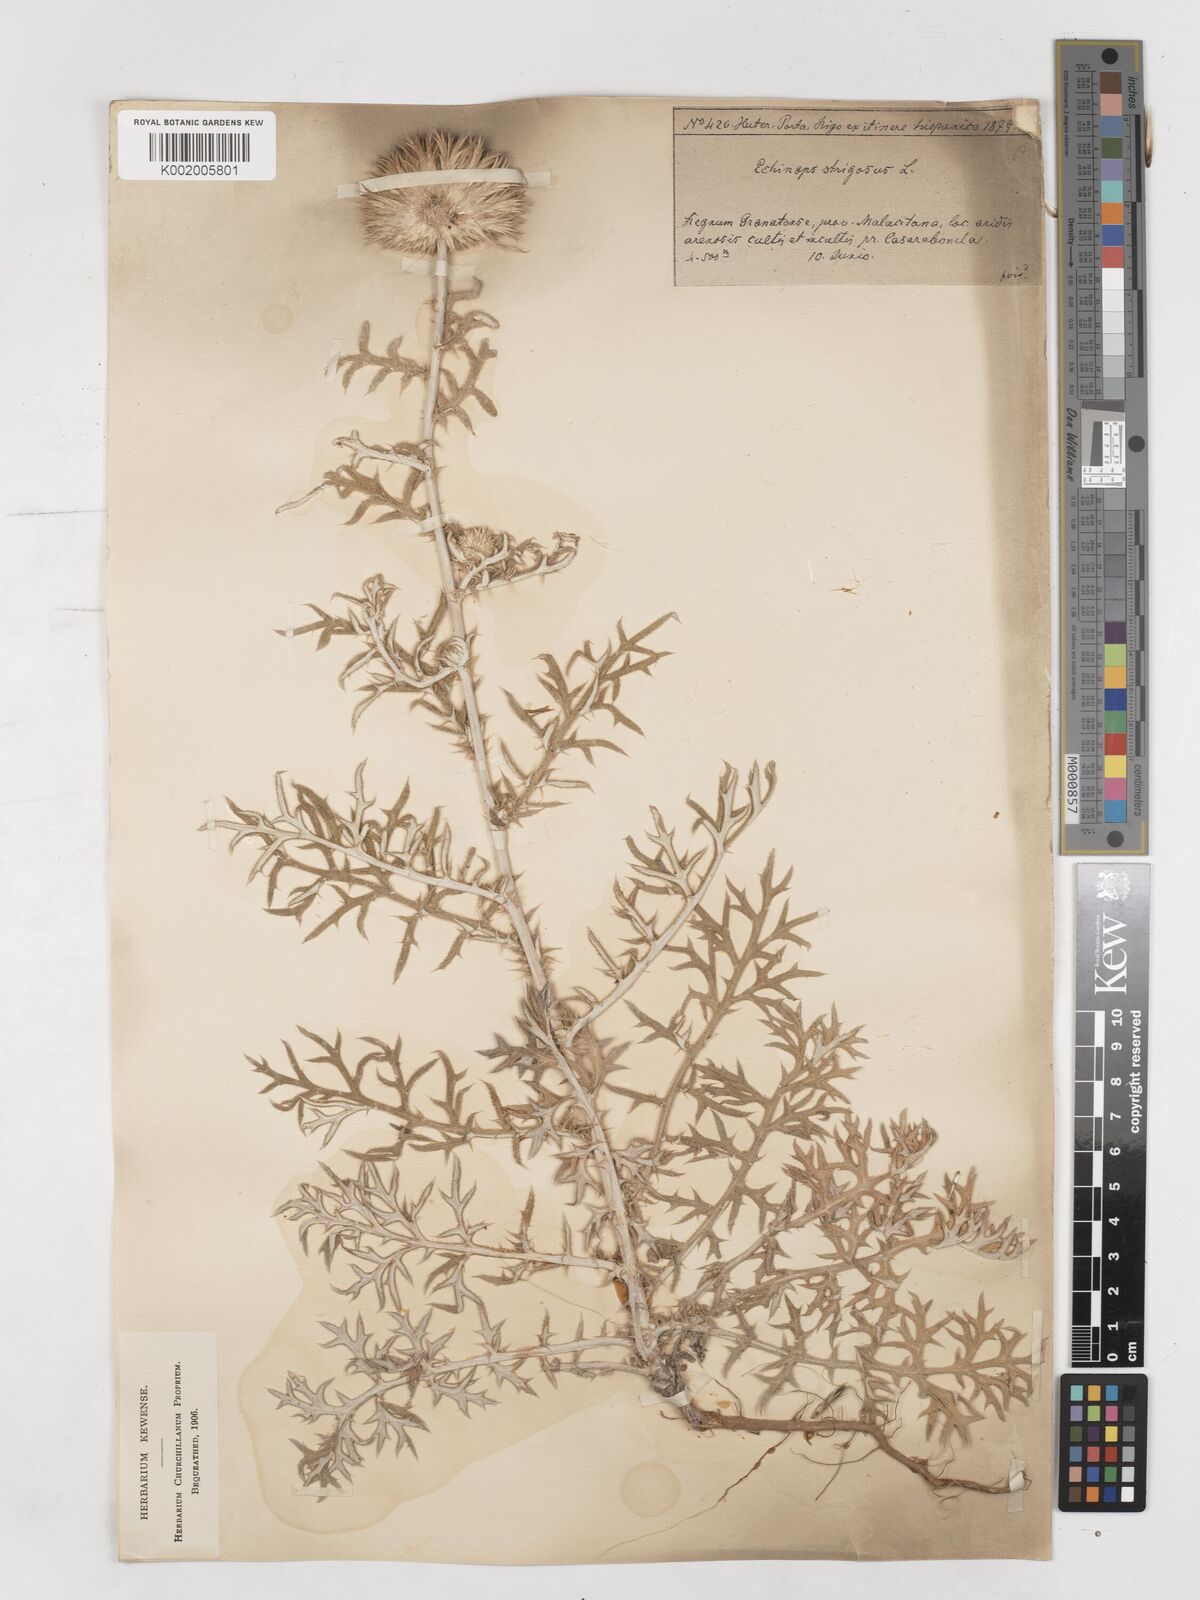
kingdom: Plantae
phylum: Tracheophyta
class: Magnoliopsida
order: Asterales
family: Asteraceae
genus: Echinops
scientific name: Echinops strigosus
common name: Rough-leaf globe thistle
